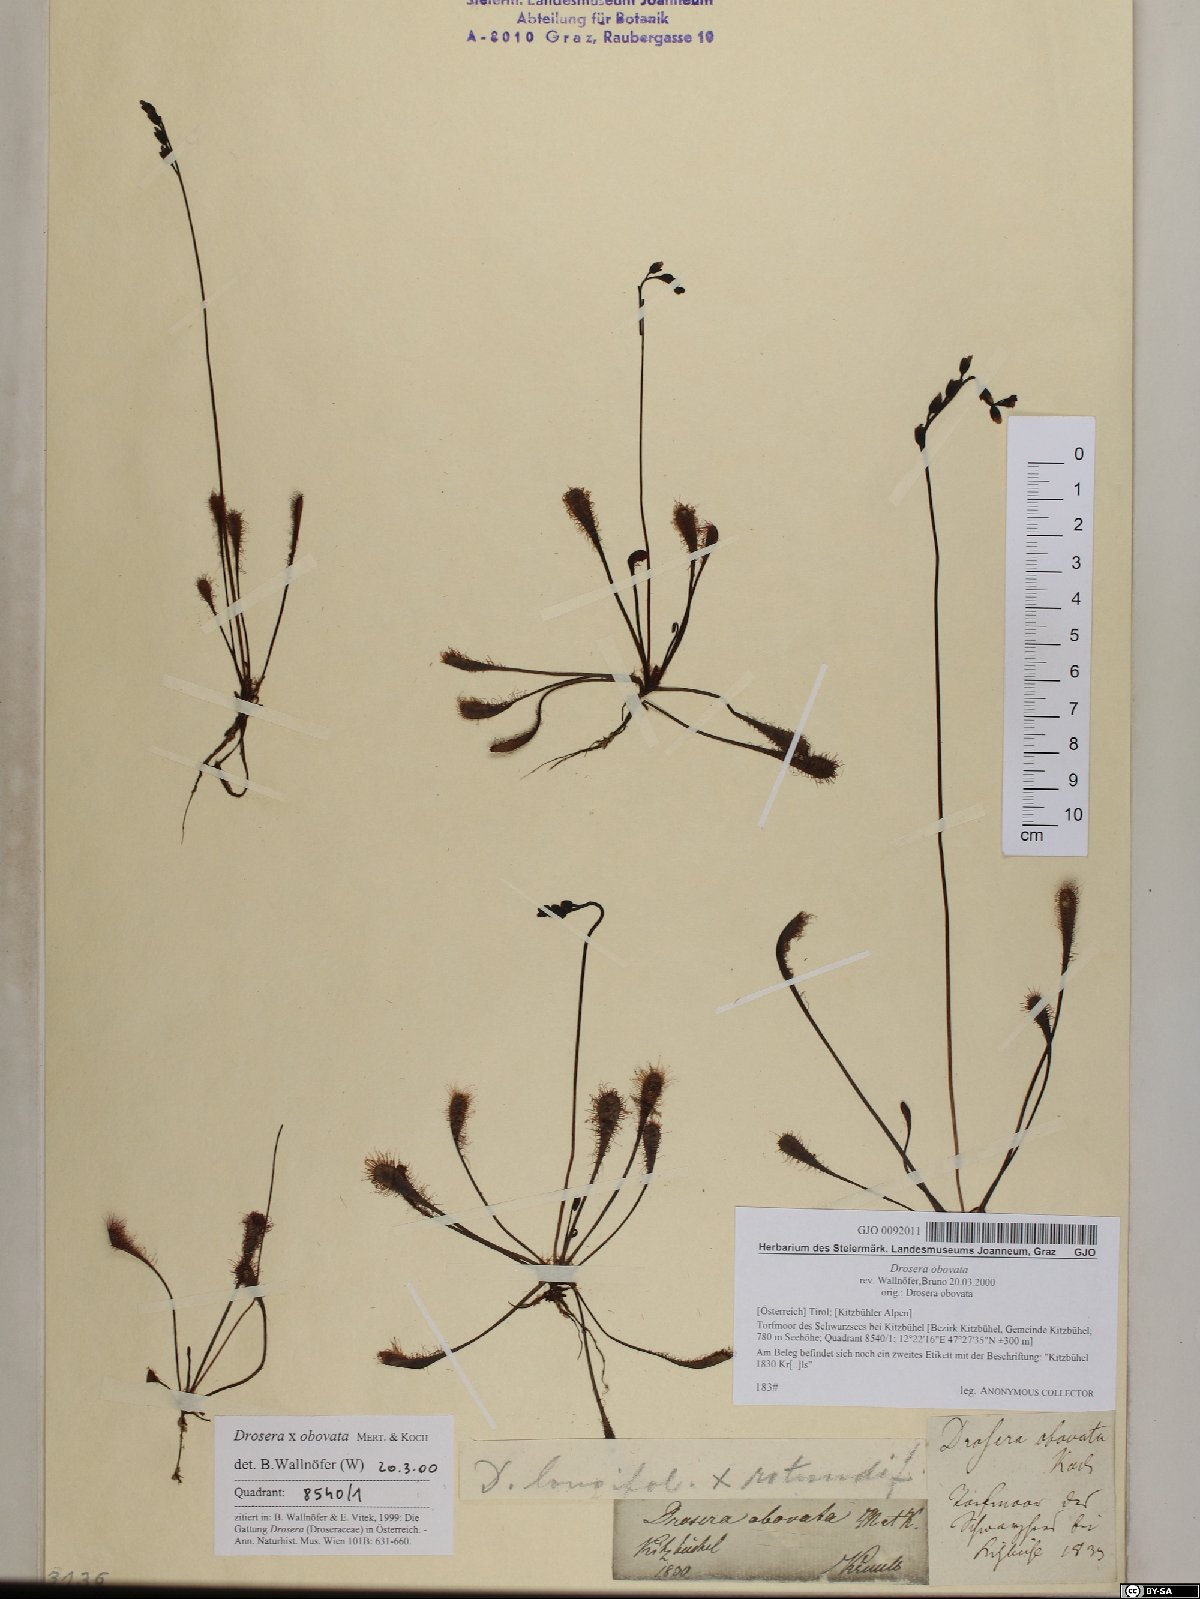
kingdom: Plantae
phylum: Tracheophyta
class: Magnoliopsida
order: Caryophyllales
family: Droseraceae
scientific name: Droseraceae
